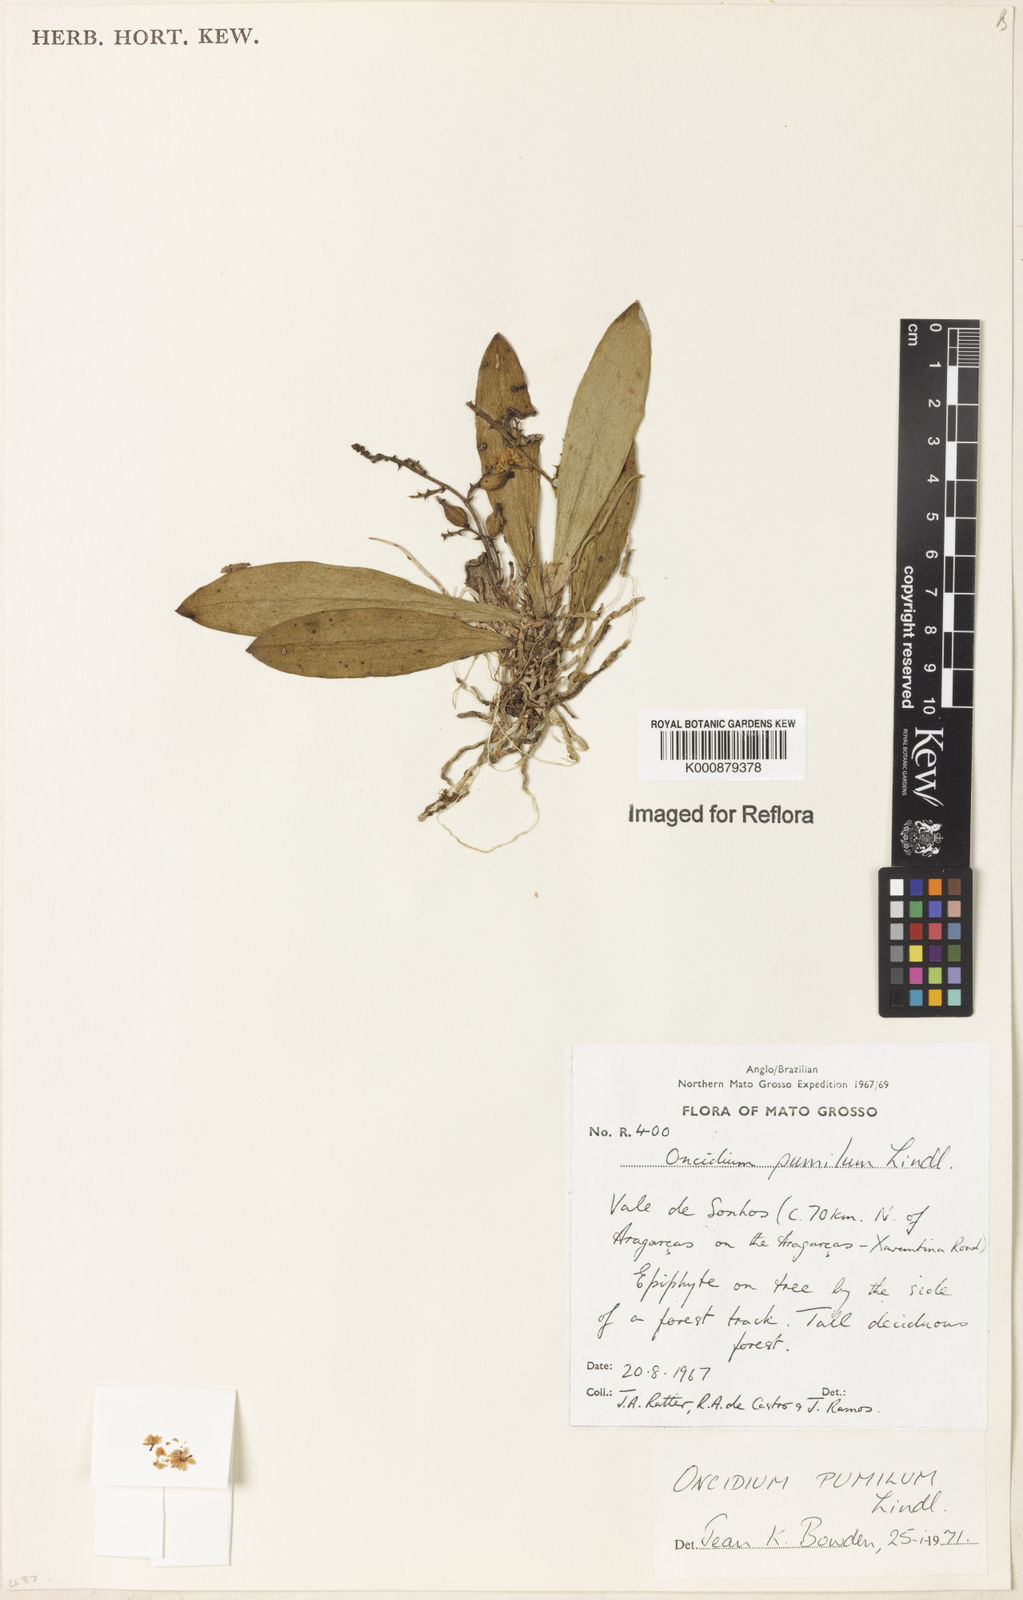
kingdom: Plantae
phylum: Tracheophyta
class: Liliopsida
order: Asparagales
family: Orchidaceae
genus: Trichocentrum
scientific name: Trichocentrum pumilum
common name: Mule-ear orchid
